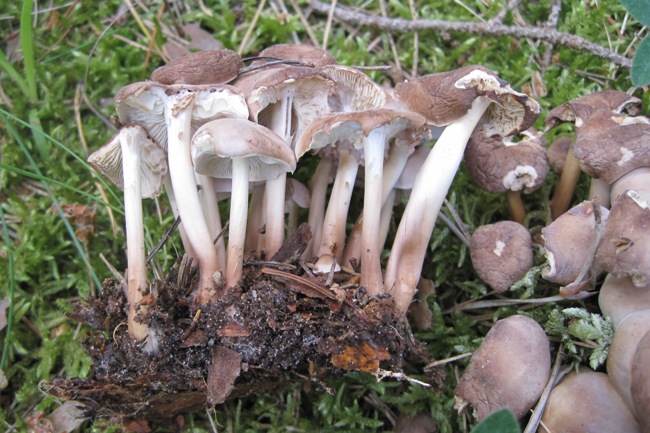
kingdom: Fungi
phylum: Basidiomycota
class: Agaricomycetes
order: Agaricales
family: Omphalotaceae
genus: Gymnopus
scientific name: Gymnopus ocior
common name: mørk fladhat
